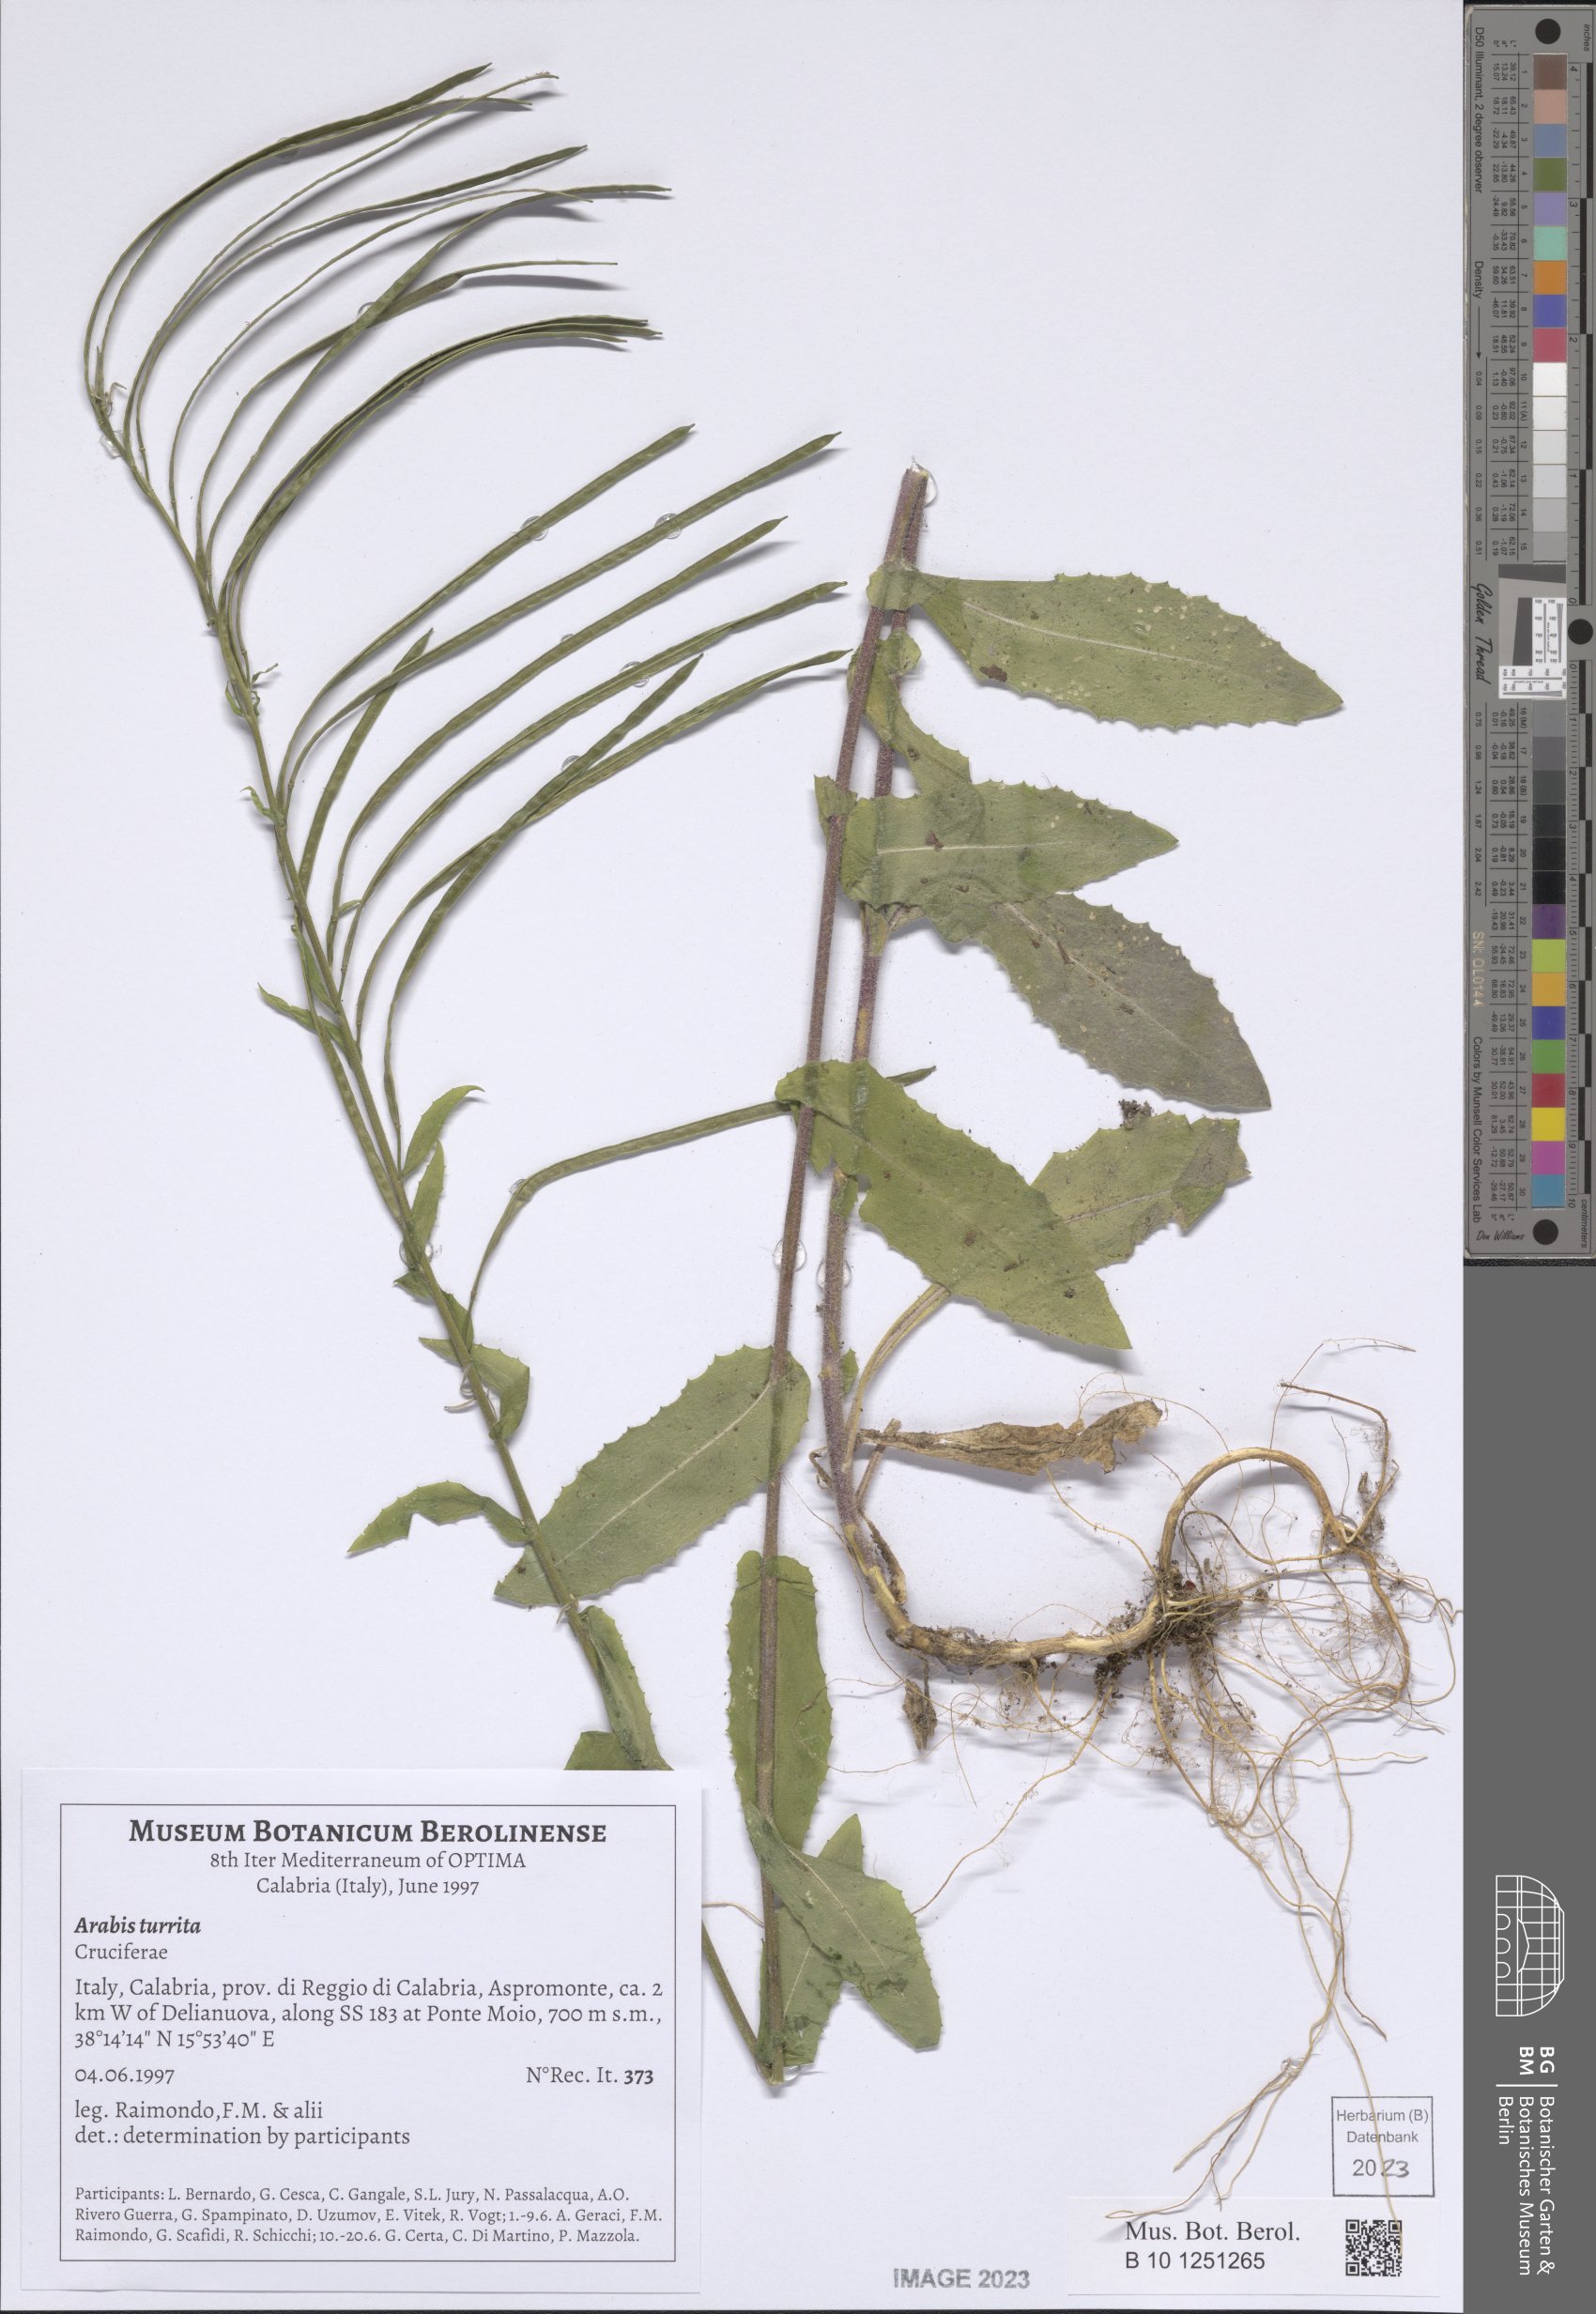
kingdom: Plantae
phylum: Tracheophyta
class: Magnoliopsida
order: Brassicales
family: Brassicaceae
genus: Pseudoturritis
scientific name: Pseudoturritis turrita
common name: Tower cress
